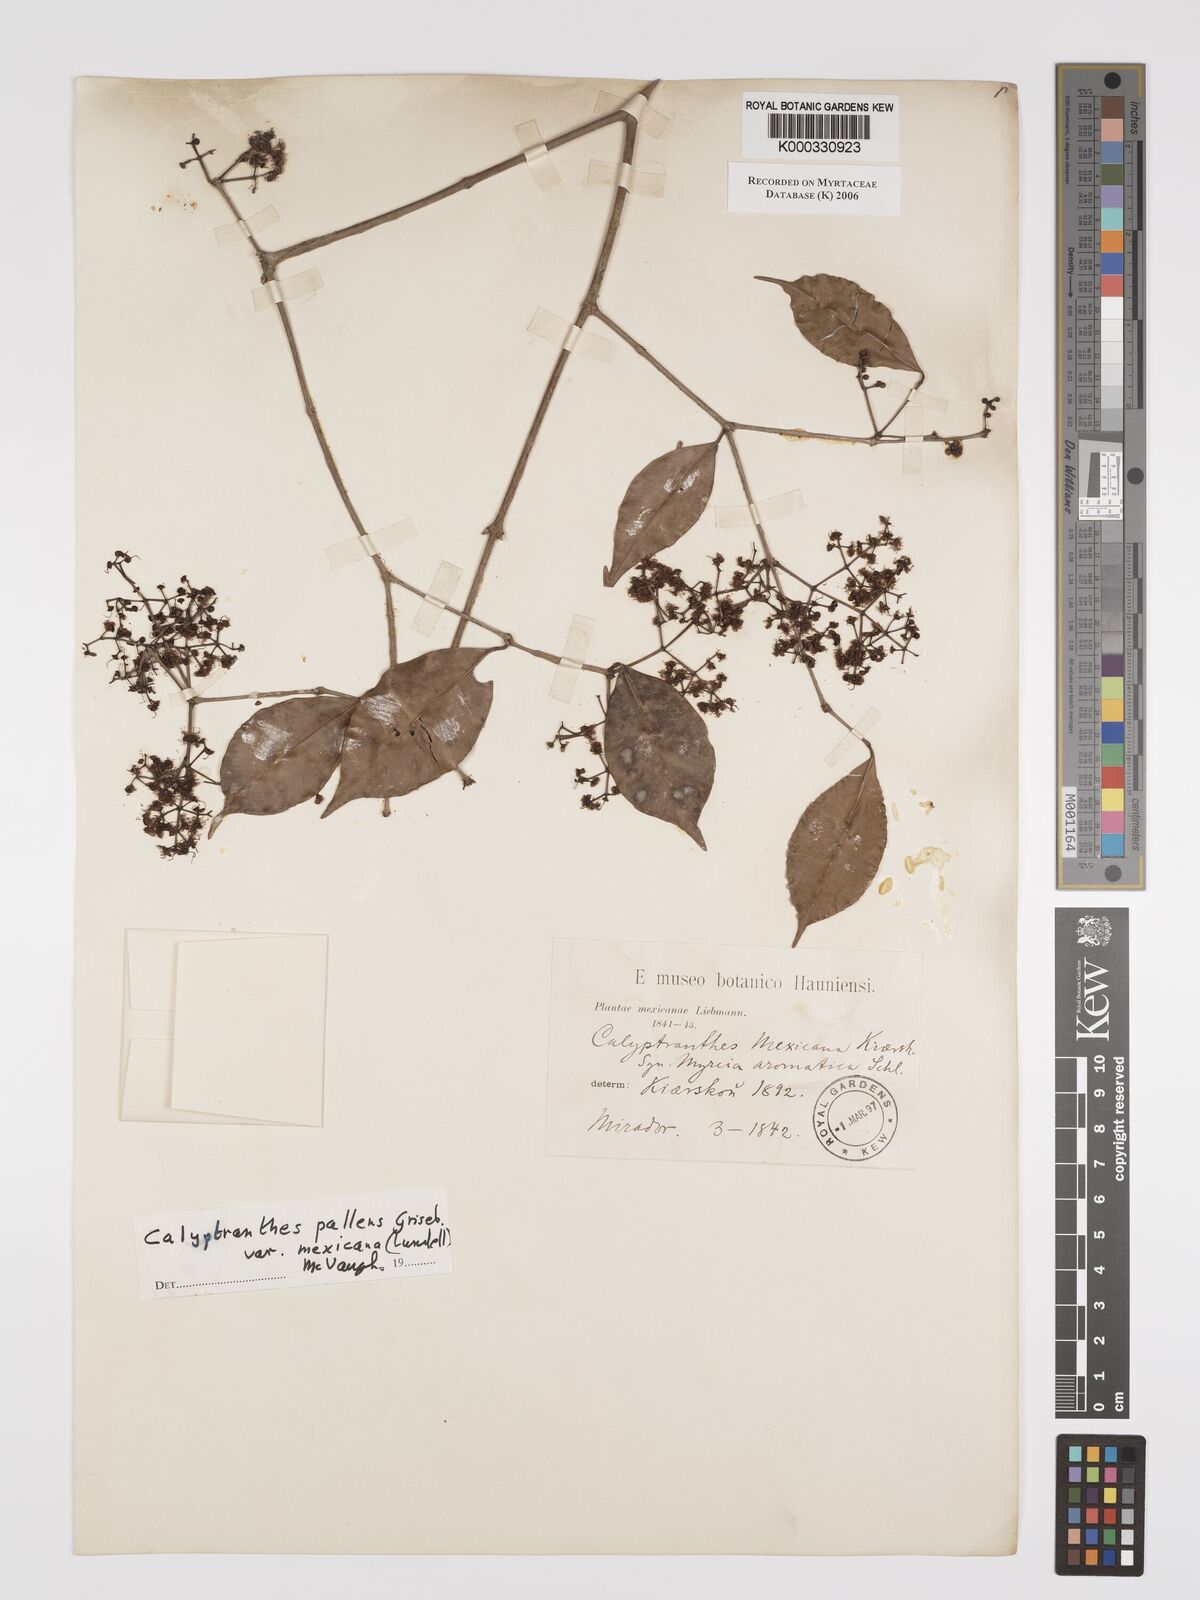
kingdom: Plantae
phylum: Tracheophyta
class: Magnoliopsida
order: Myrtales
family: Myrtaceae
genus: Myrcia
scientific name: Myrcia neopallens
